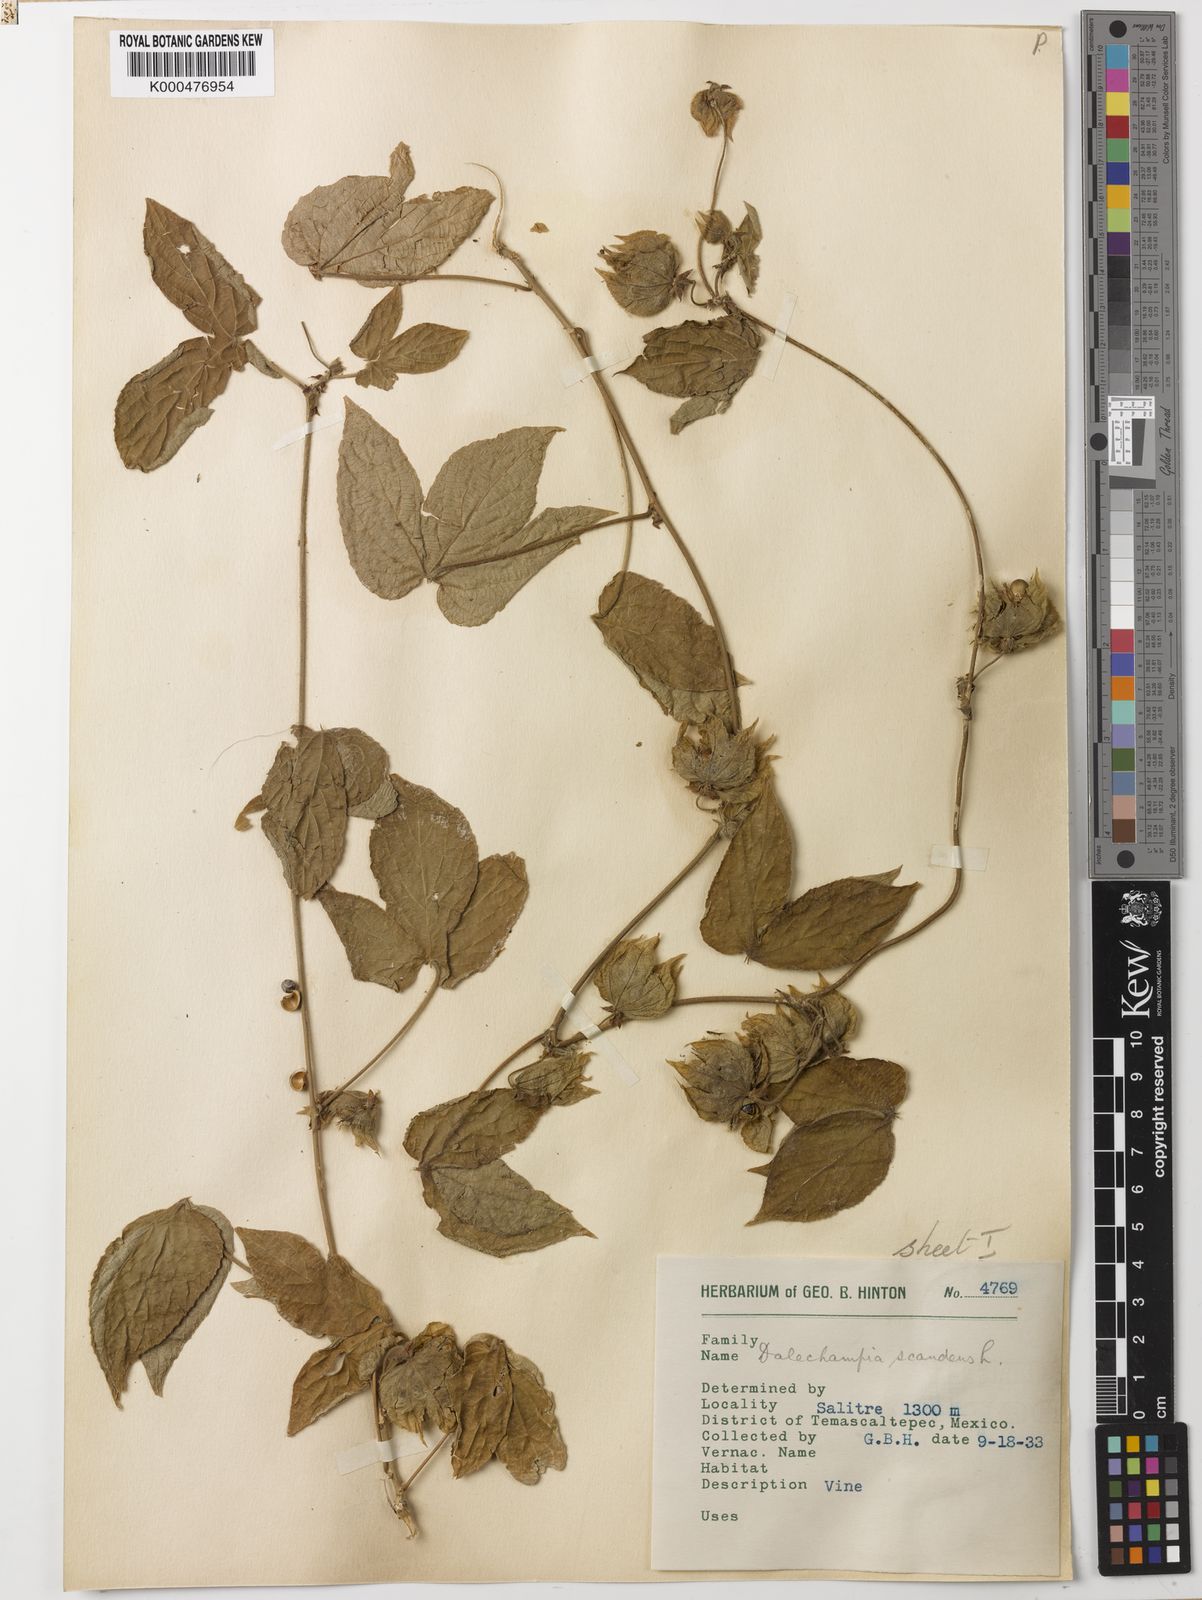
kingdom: Plantae
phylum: Tracheophyta
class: Magnoliopsida
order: Malpighiales
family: Euphorbiaceae
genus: Dalechampia
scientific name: Dalechampia scandens
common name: Spurgecreeper
